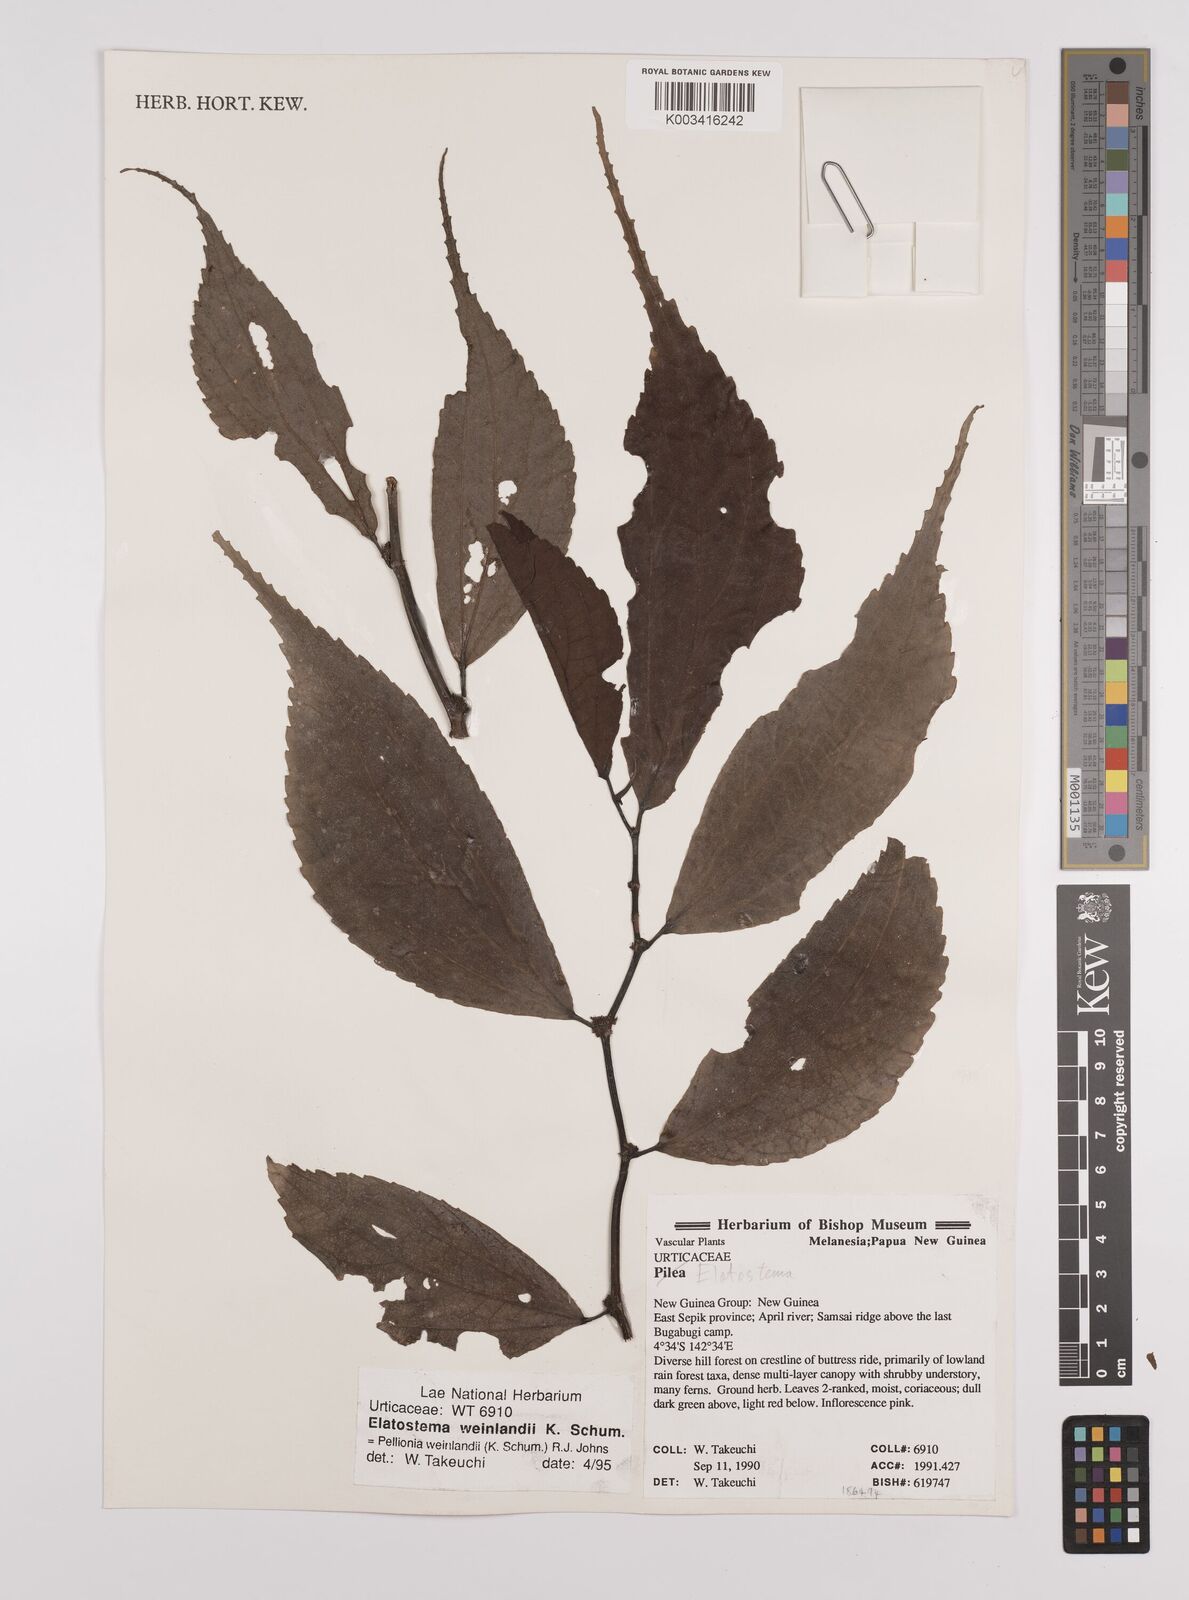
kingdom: Plantae
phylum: Tracheophyta
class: Magnoliopsida
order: Rosales
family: Urticaceae
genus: Elatostema
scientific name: Elatostema weinlandii
